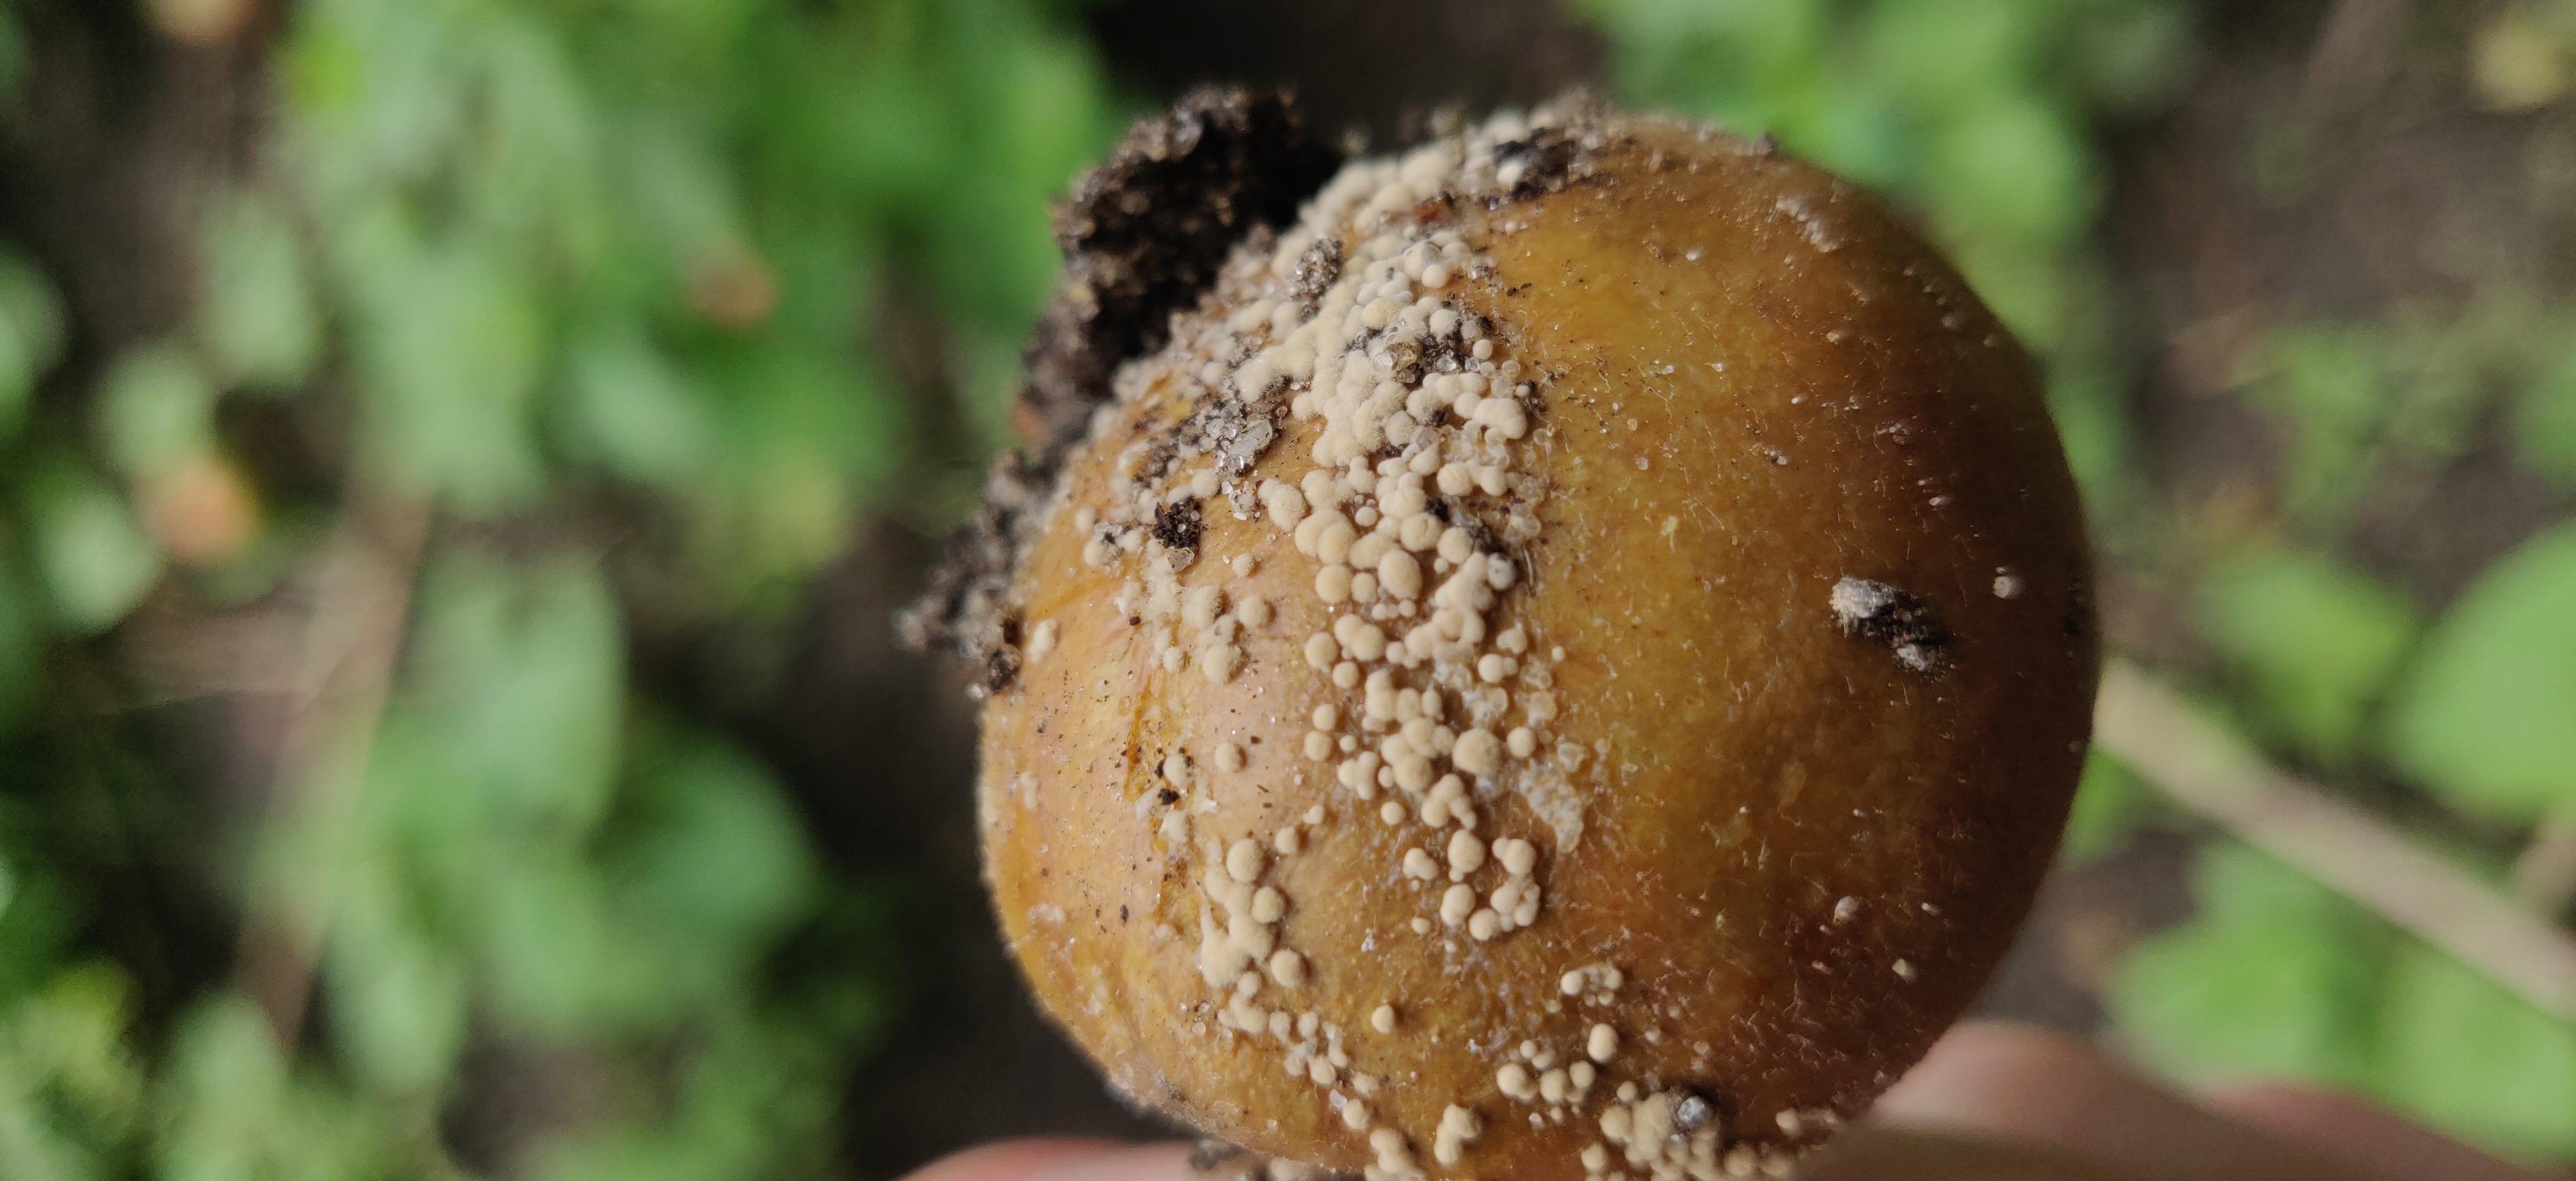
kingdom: Fungi
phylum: Ascomycota
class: Leotiomycetes
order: Helotiales
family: Sclerotiniaceae
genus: Monilinia
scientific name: Monilinia fructigena
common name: æble-knoldskive
